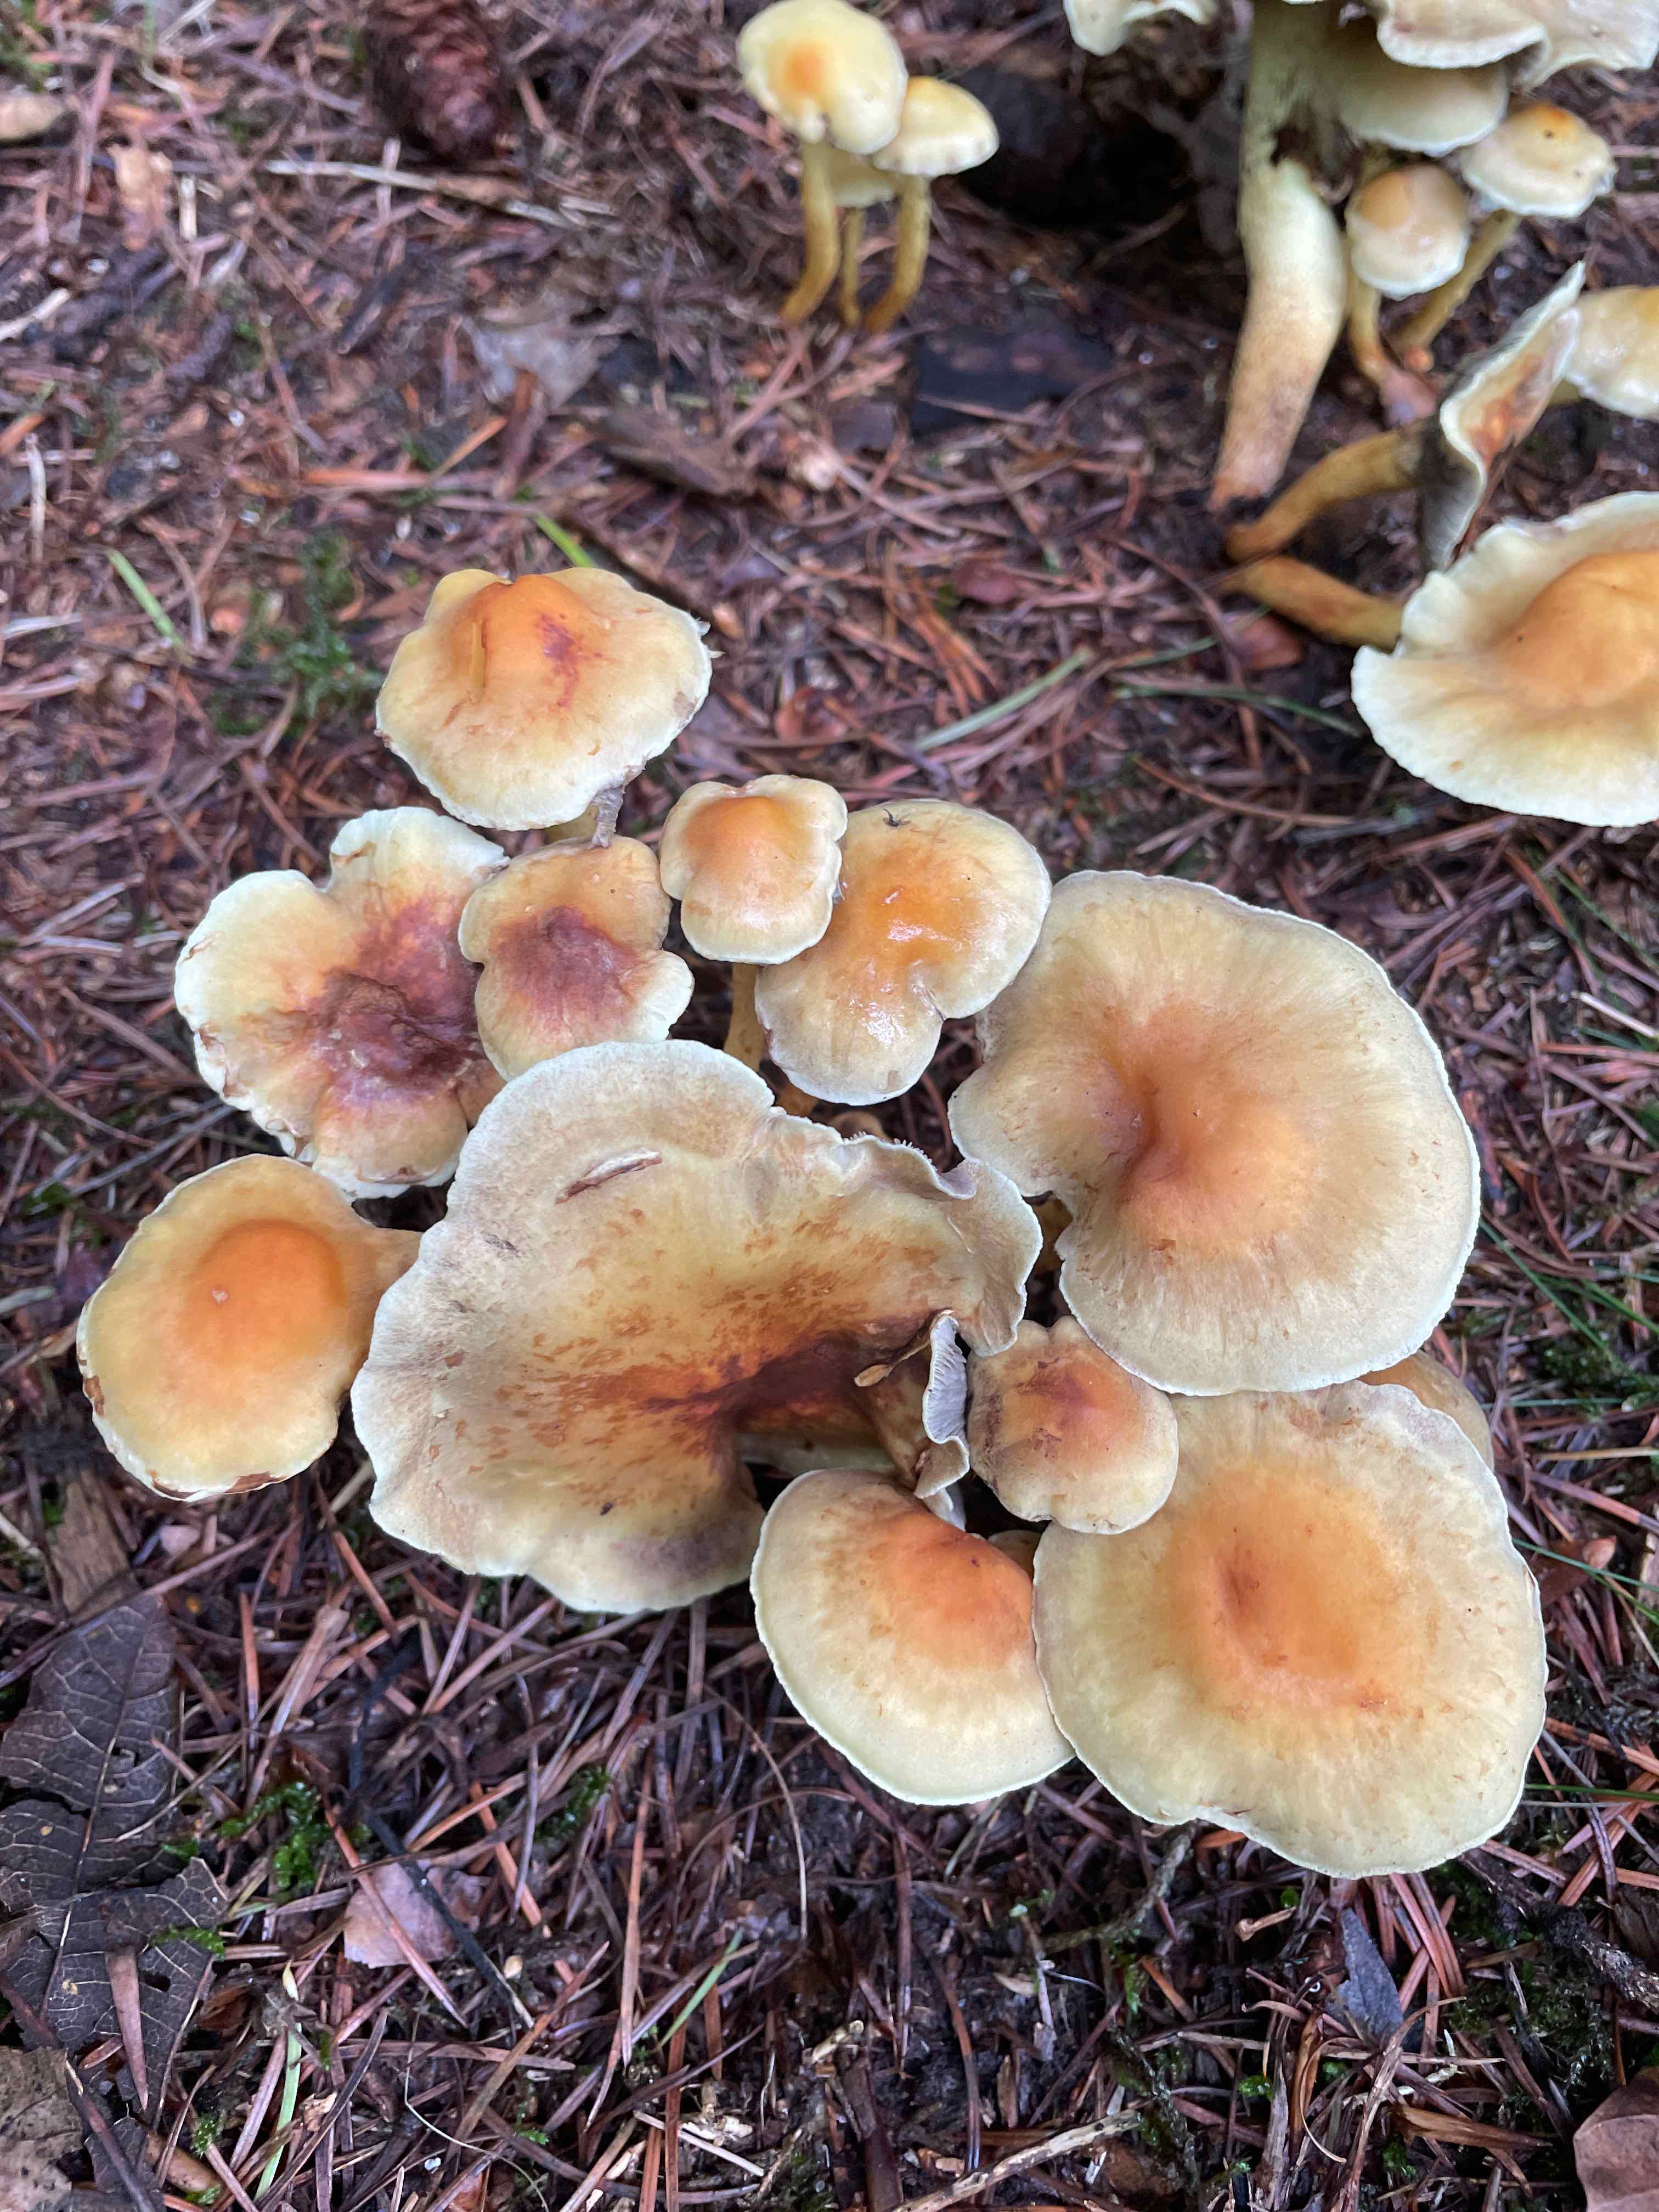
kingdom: Fungi
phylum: Basidiomycota
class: Agaricomycetes
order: Agaricales
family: Strophariaceae
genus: Hypholoma
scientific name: Hypholoma
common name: svovlhat
